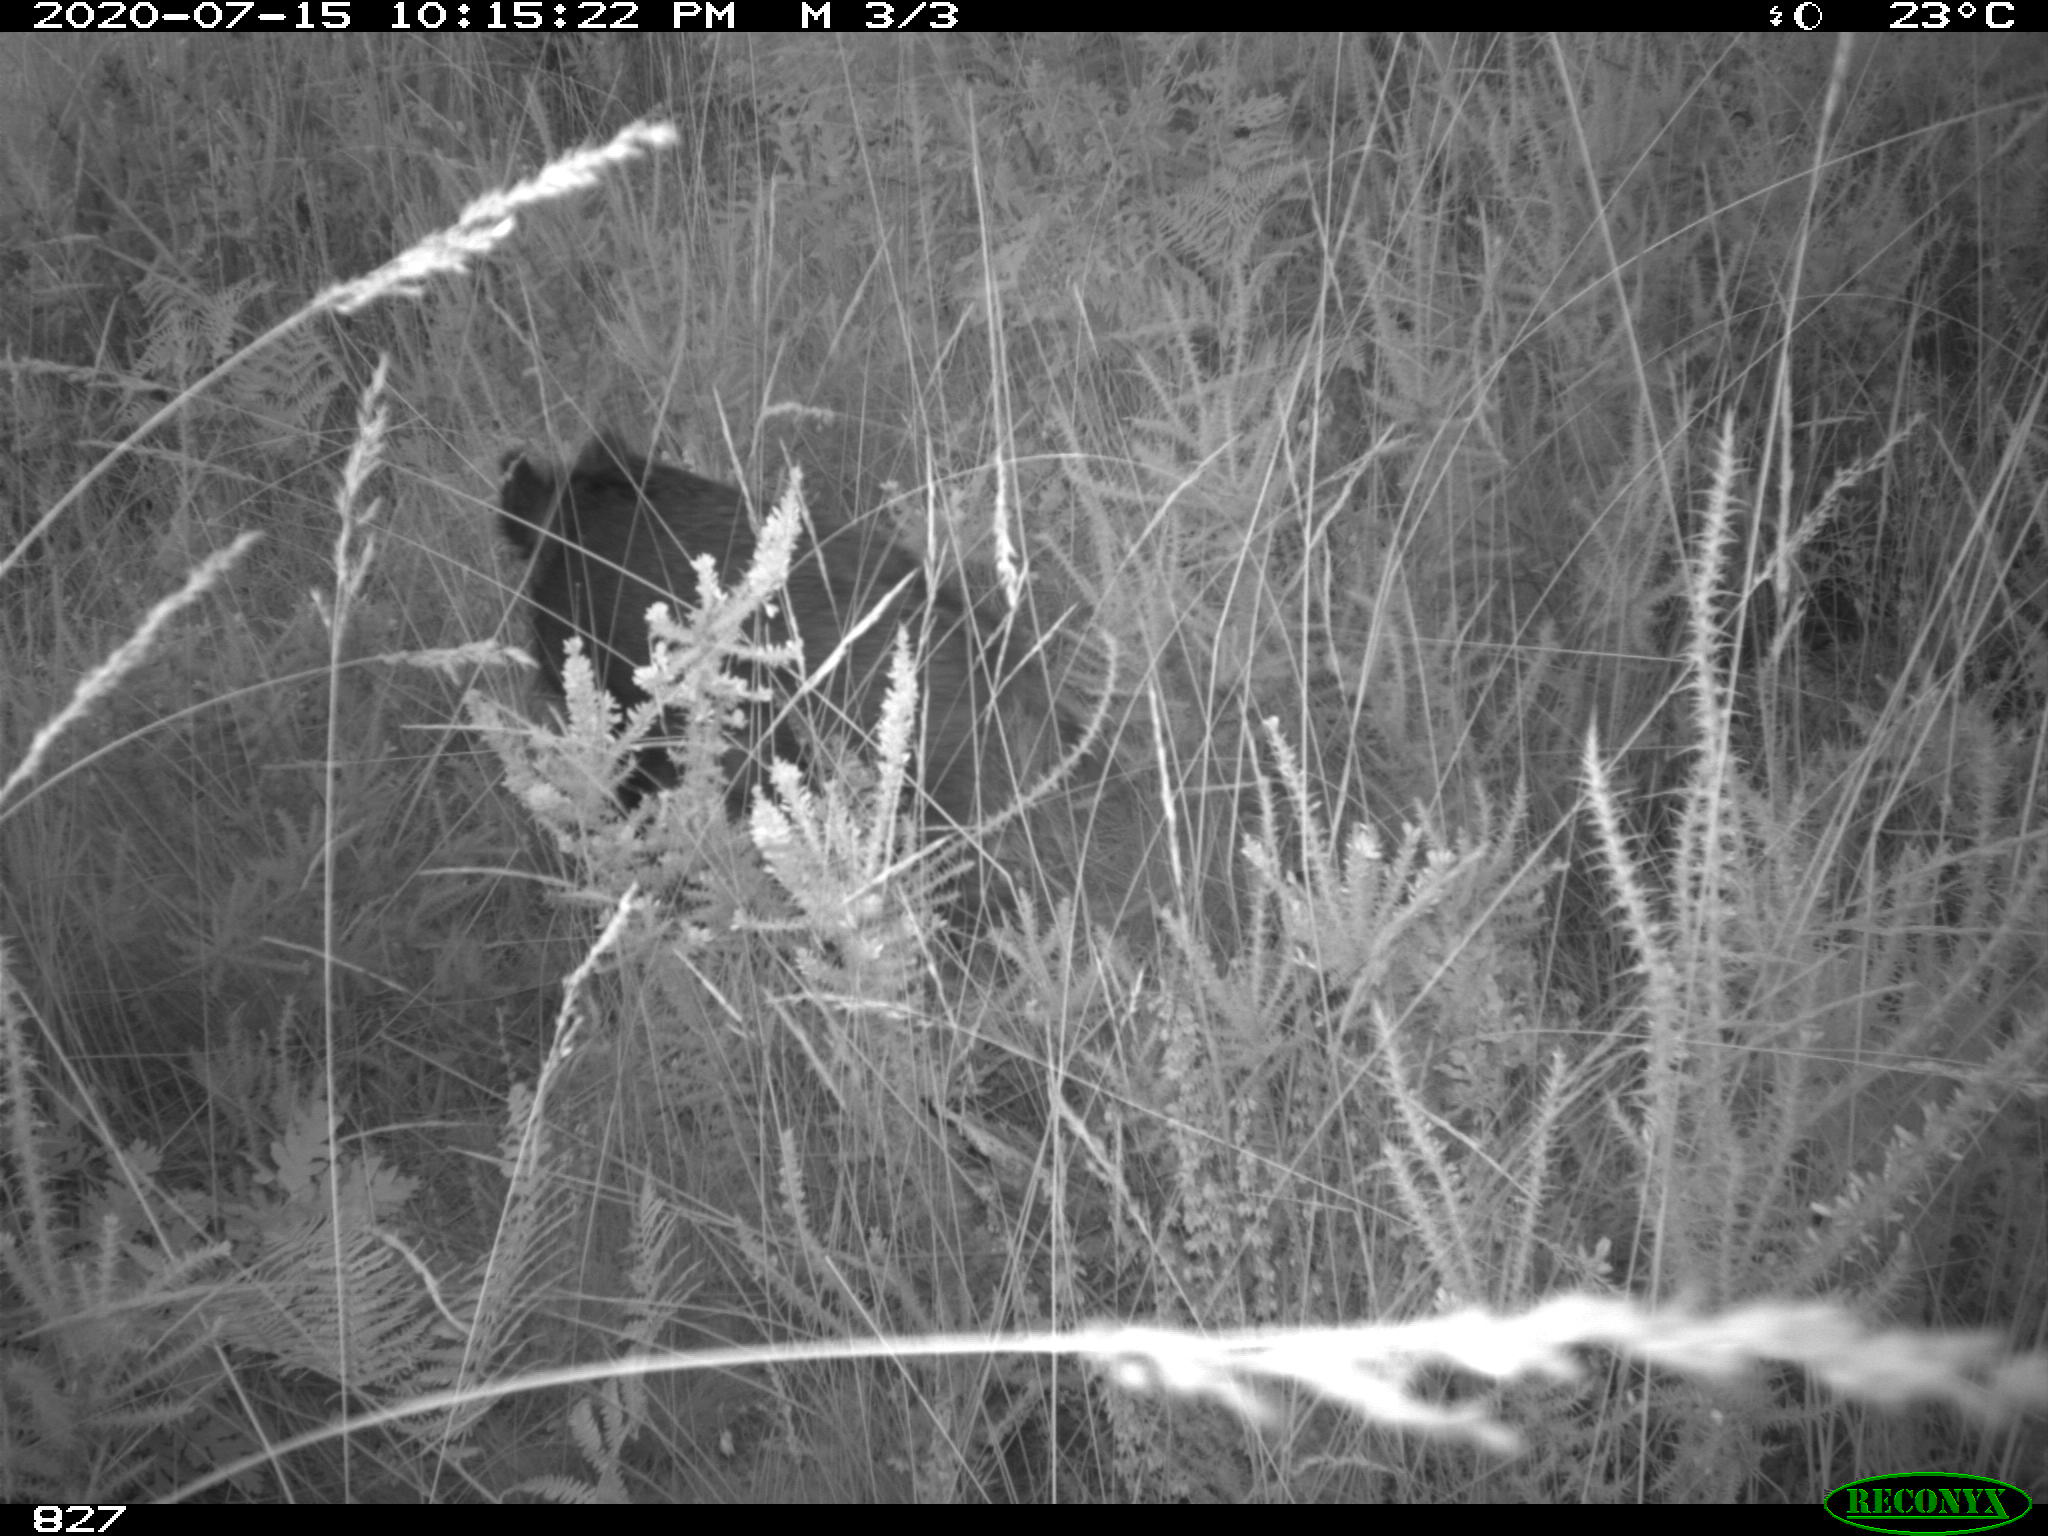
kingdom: Animalia
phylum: Chordata
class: Mammalia
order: Artiodactyla
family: Suidae
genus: Sus
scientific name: Sus scrofa
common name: Wild boar
